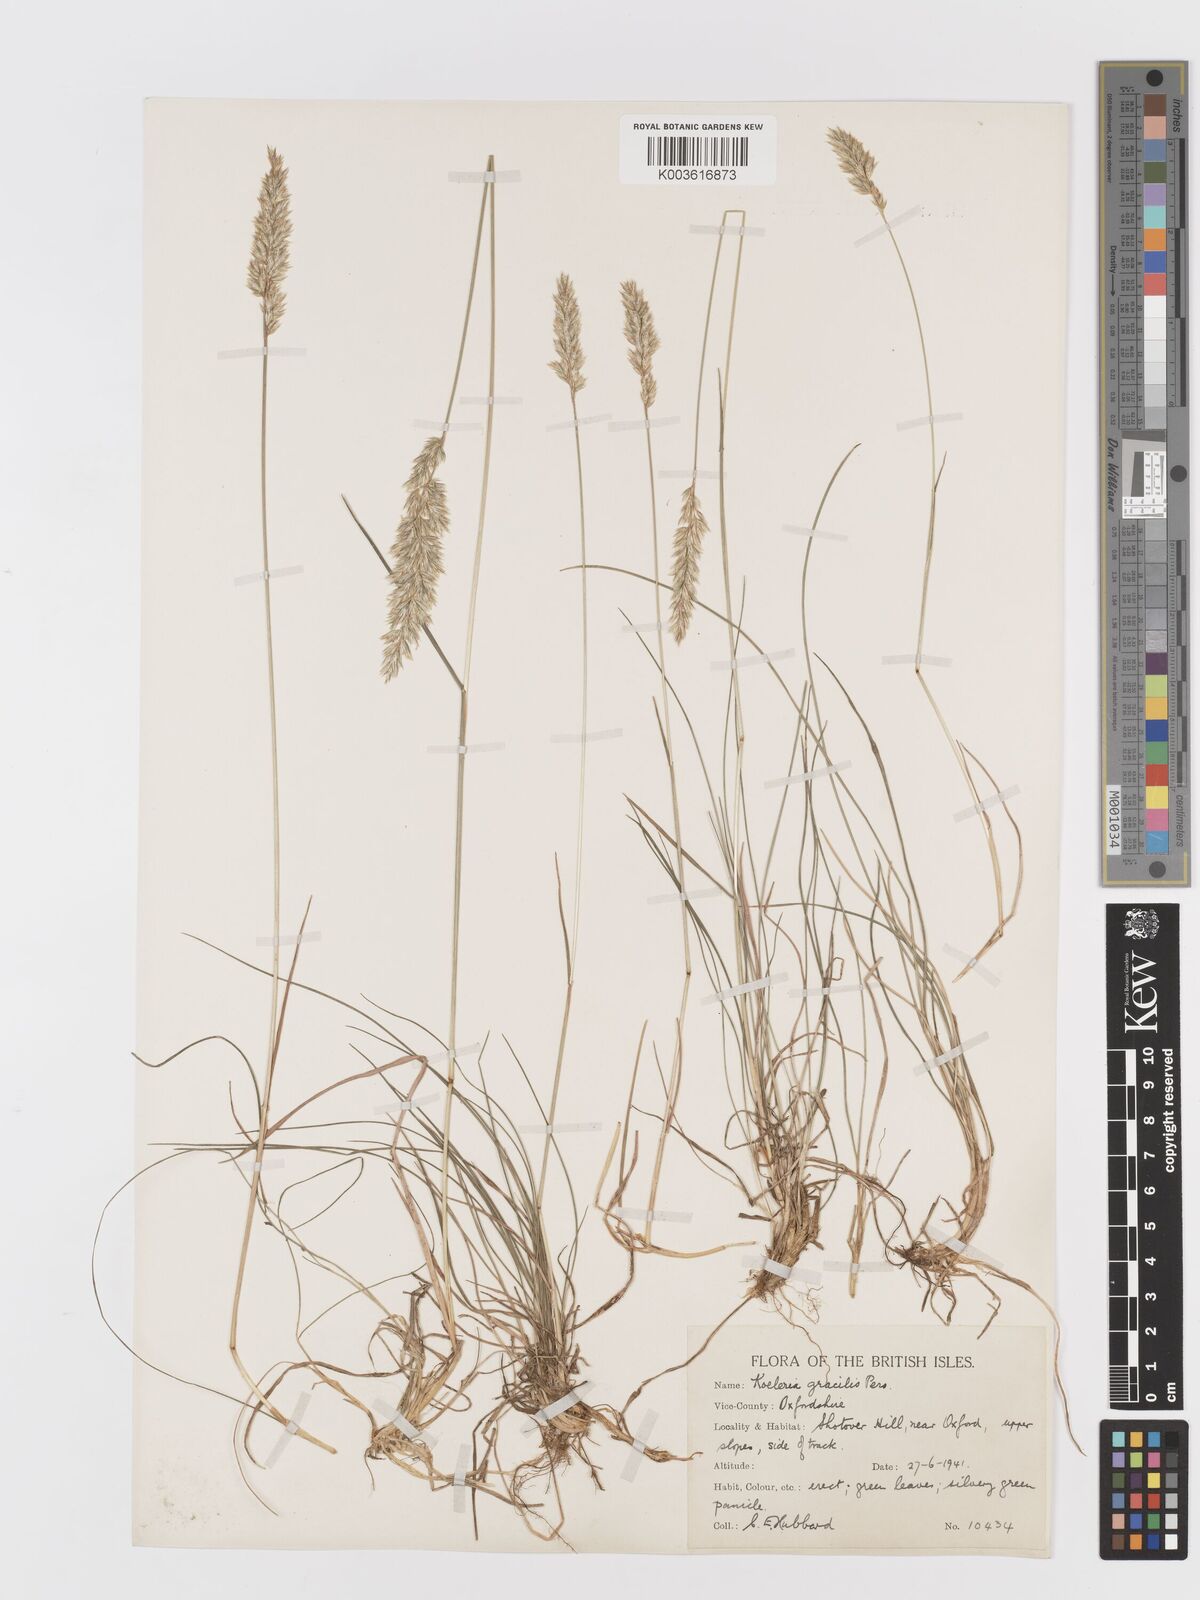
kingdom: Plantae
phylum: Tracheophyta
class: Liliopsida
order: Poales
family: Poaceae
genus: Koeleria
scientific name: Koeleria macrantha
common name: Crested hair-grass
